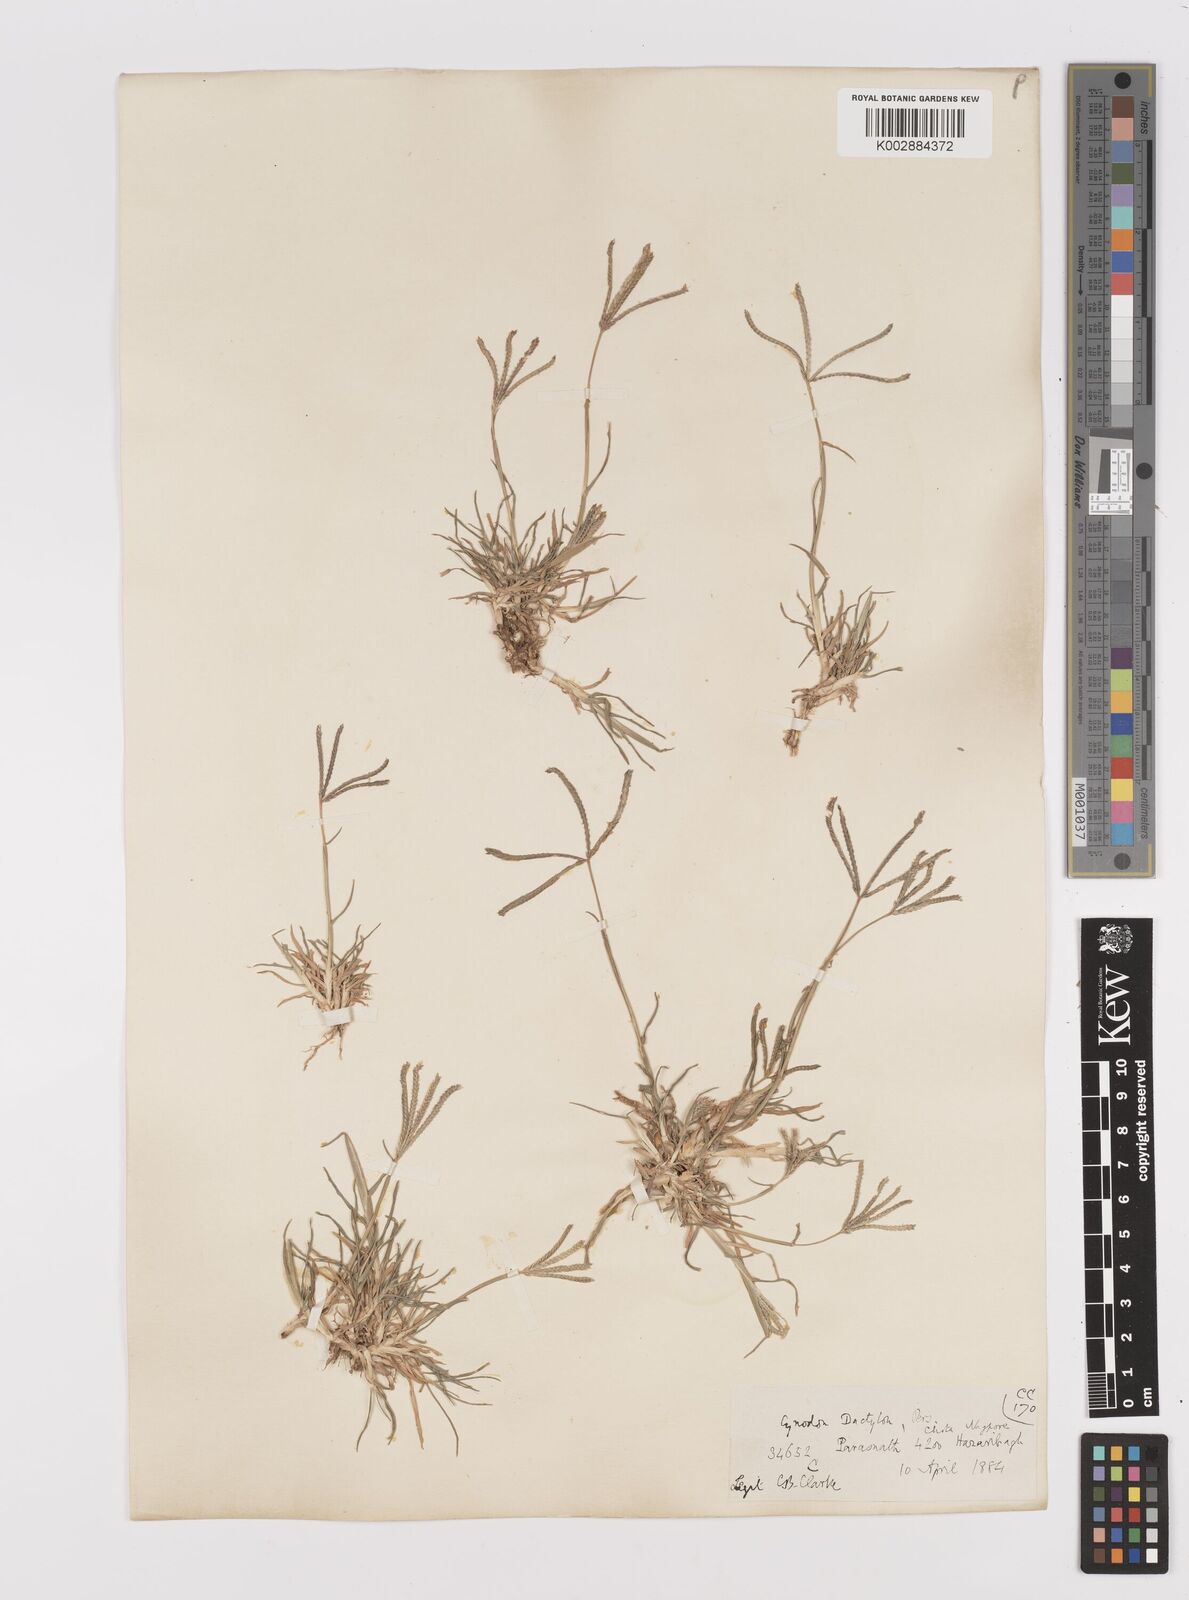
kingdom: Plantae
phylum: Tracheophyta
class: Liliopsida
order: Poales
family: Poaceae
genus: Cynodon
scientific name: Cynodon dactylon
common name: Bermuda grass
